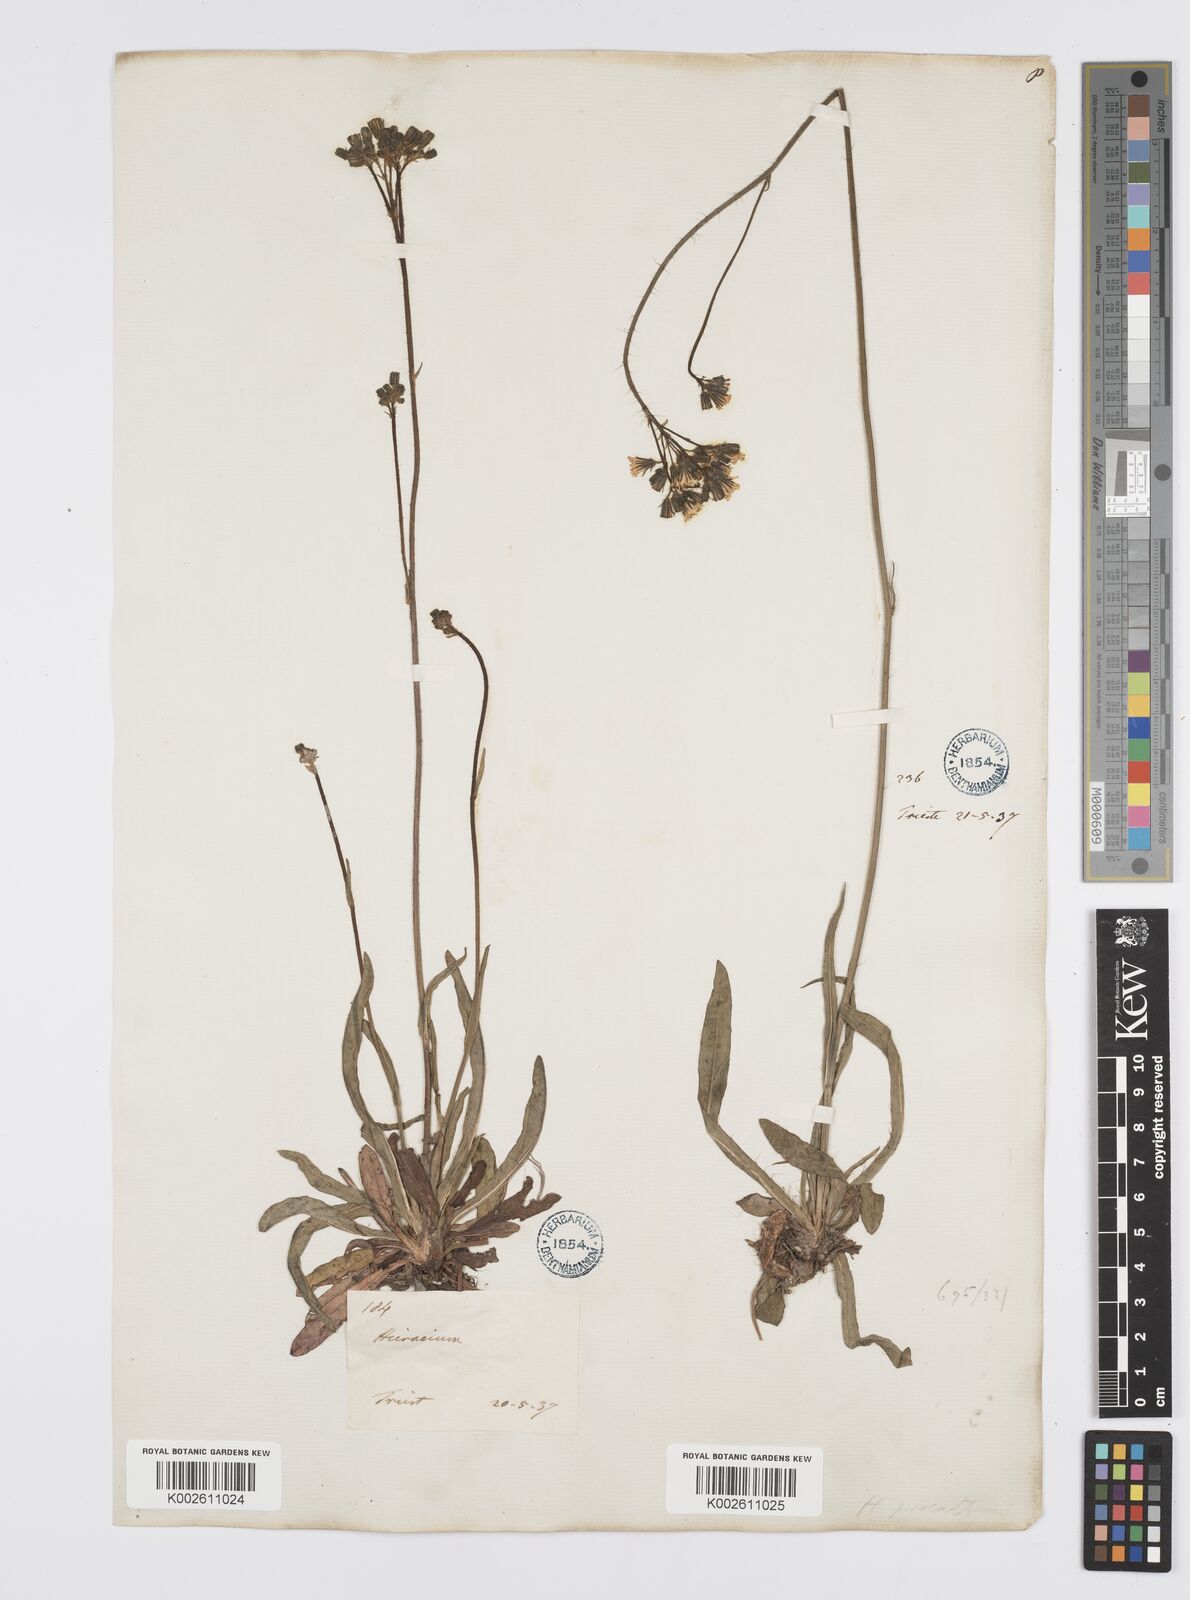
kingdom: Plantae
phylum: Tracheophyta
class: Magnoliopsida
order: Asterales
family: Asteraceae
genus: Pilosella
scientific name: Pilosella piloselloides
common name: Glaucous king-devil
